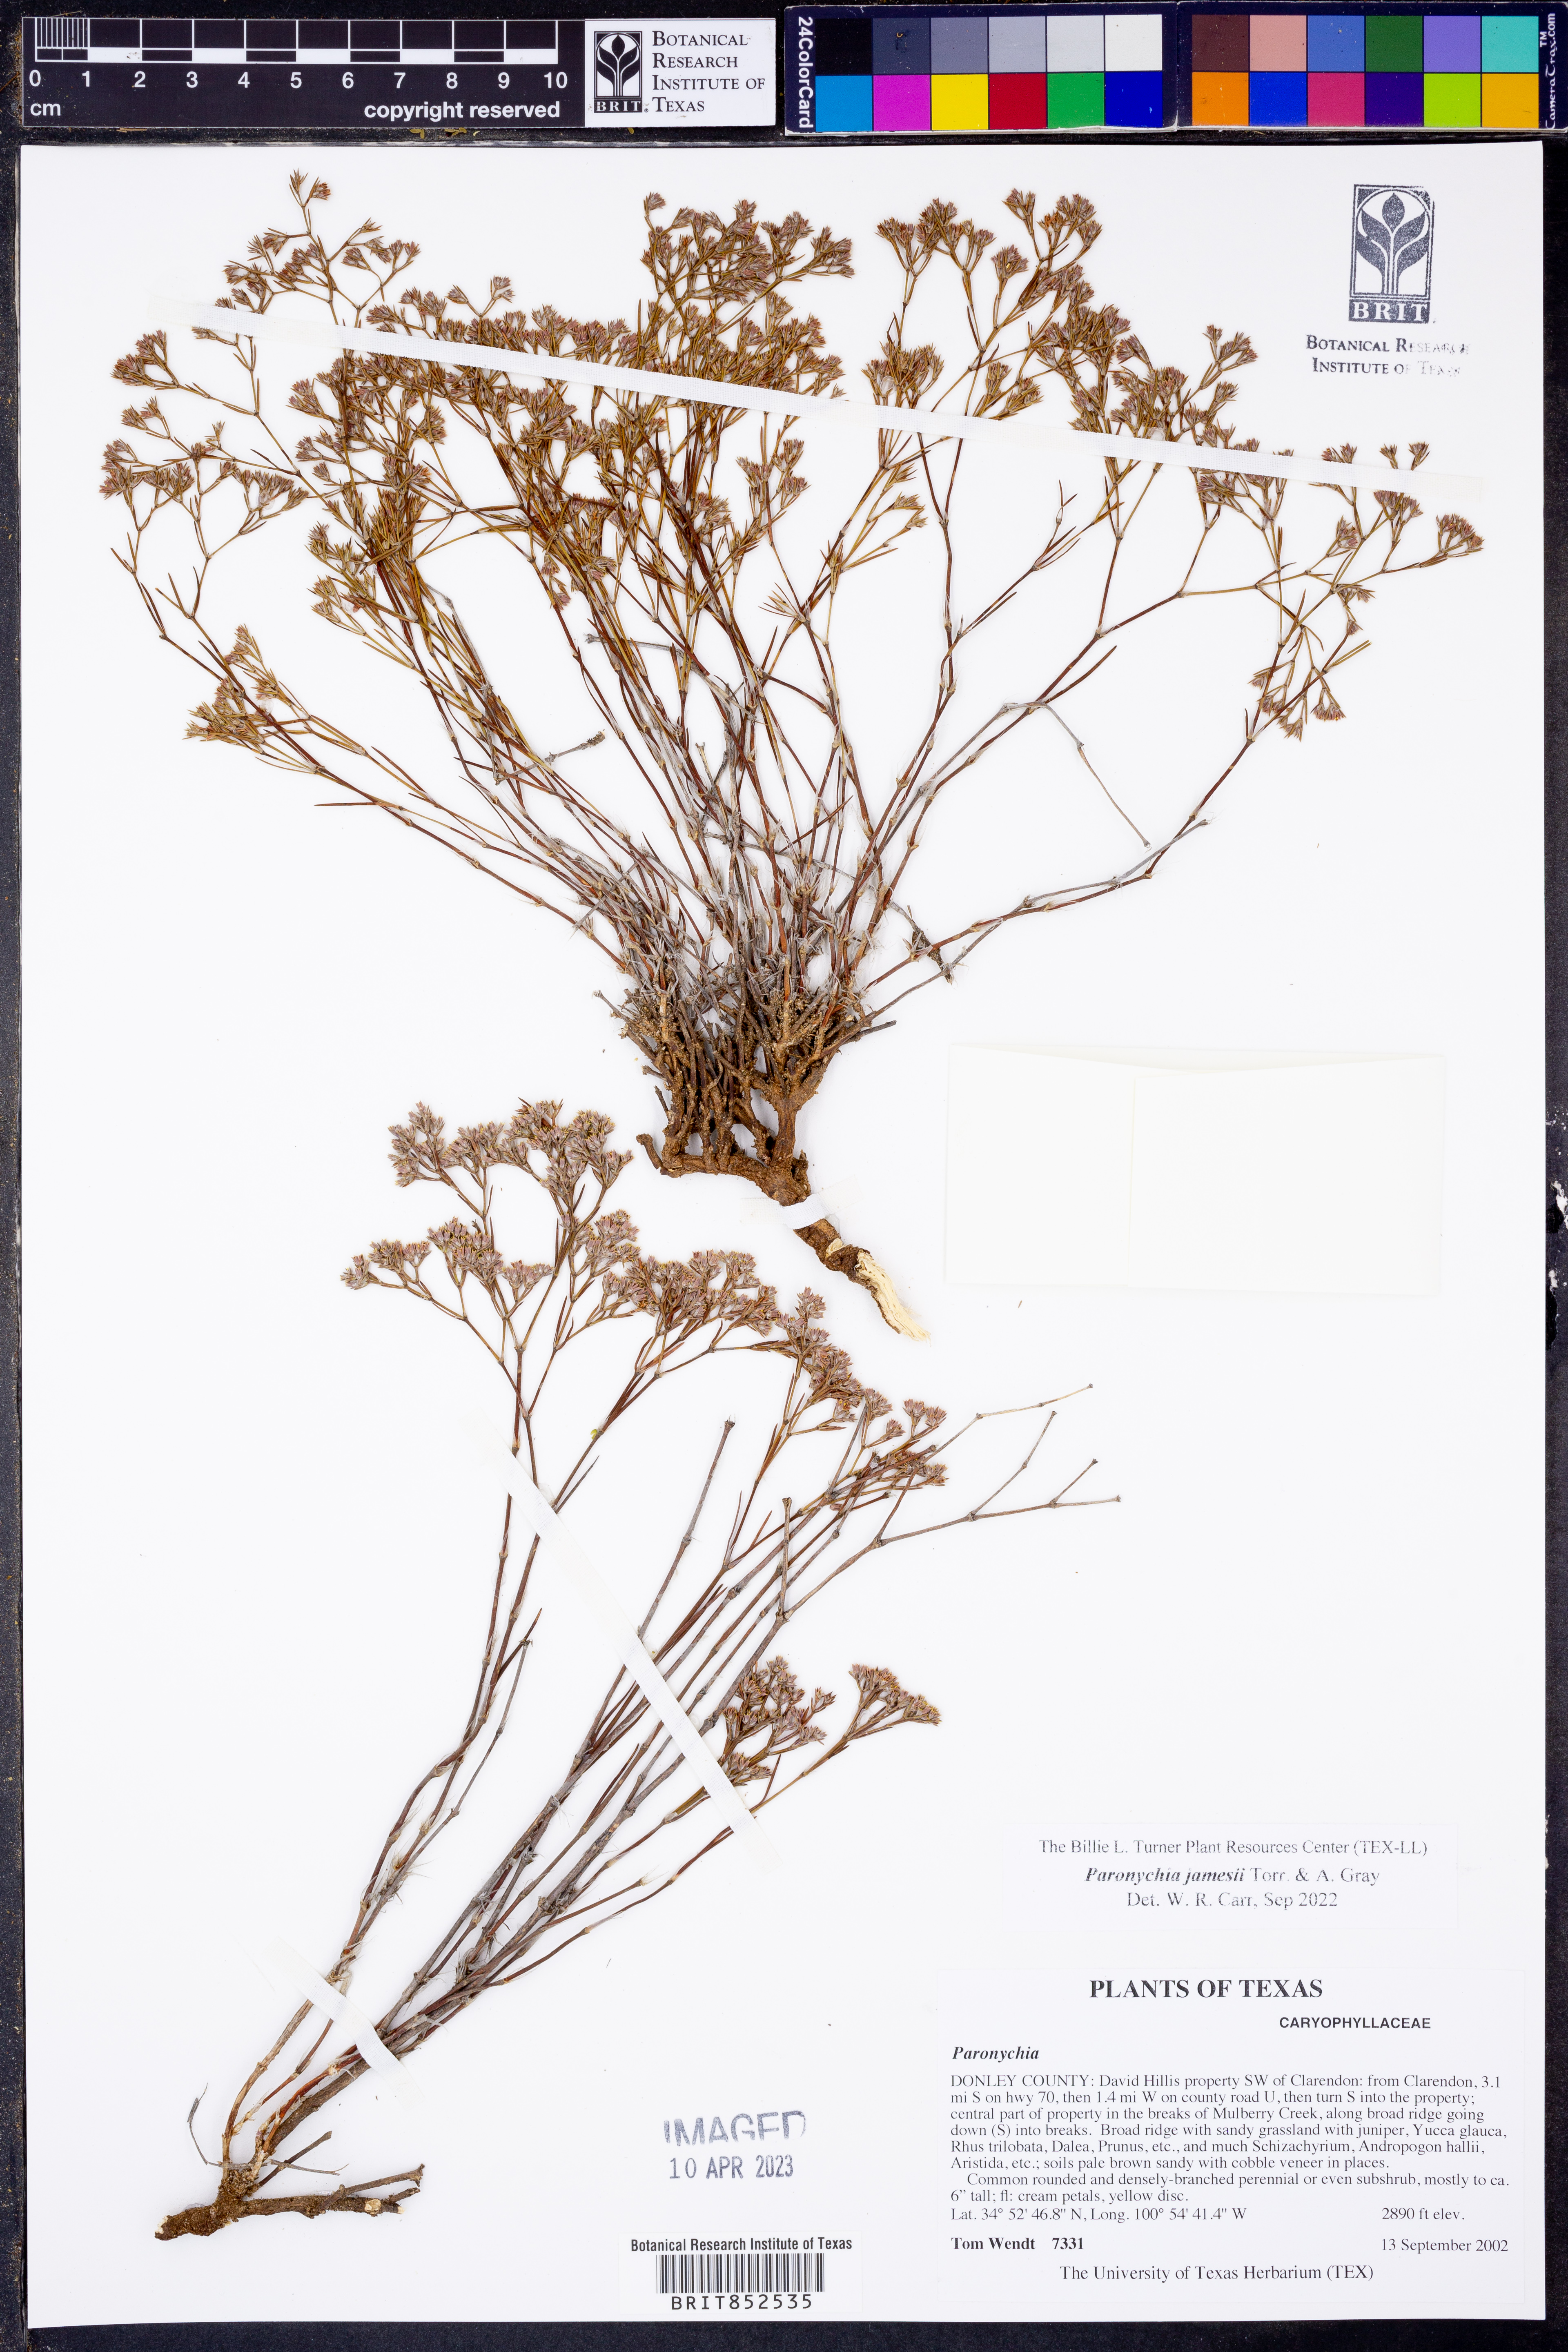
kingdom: Plantae
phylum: Tracheophyta
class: Magnoliopsida
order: Caryophyllales
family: Caryophyllaceae
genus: Paronychia
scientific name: Paronychia jamesii
